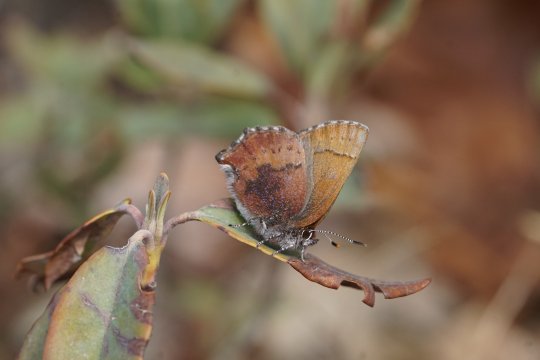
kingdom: Animalia
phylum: Arthropoda
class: Insecta
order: Lepidoptera
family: Lycaenidae
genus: Incisalia
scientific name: Incisalia irioides
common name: Brown Elfin
